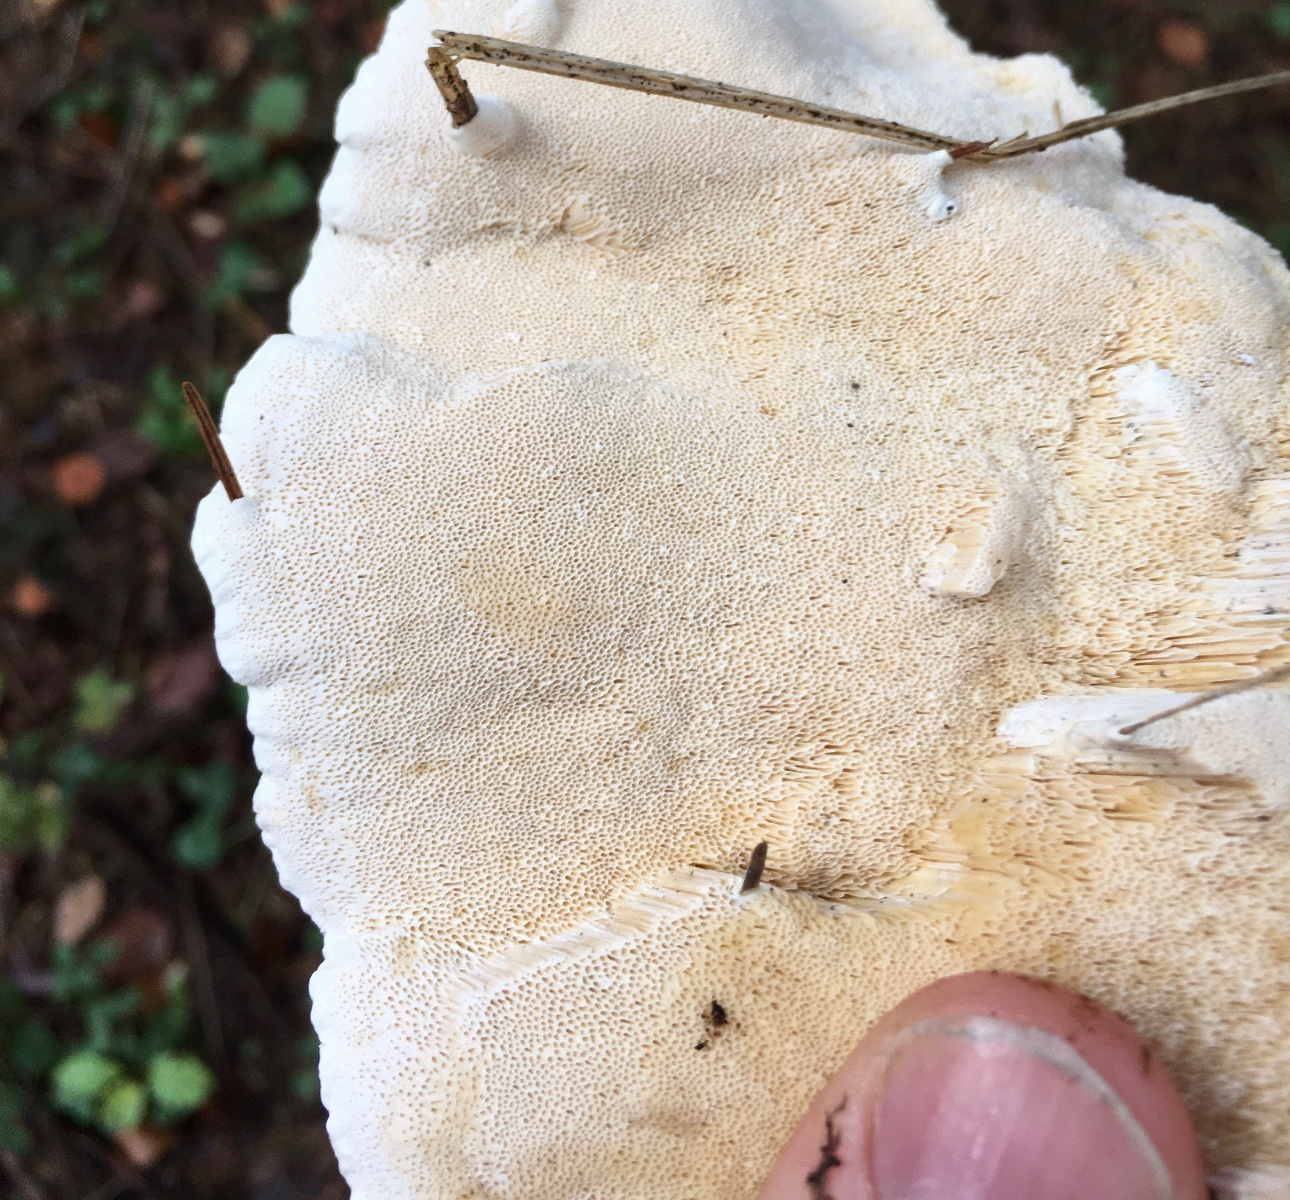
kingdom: Fungi
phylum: Basidiomycota
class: Agaricomycetes
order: Russulales
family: Bondarzewiaceae
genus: Heterobasidion
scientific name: Heterobasidion annosum
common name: almindelig rodfordærver
